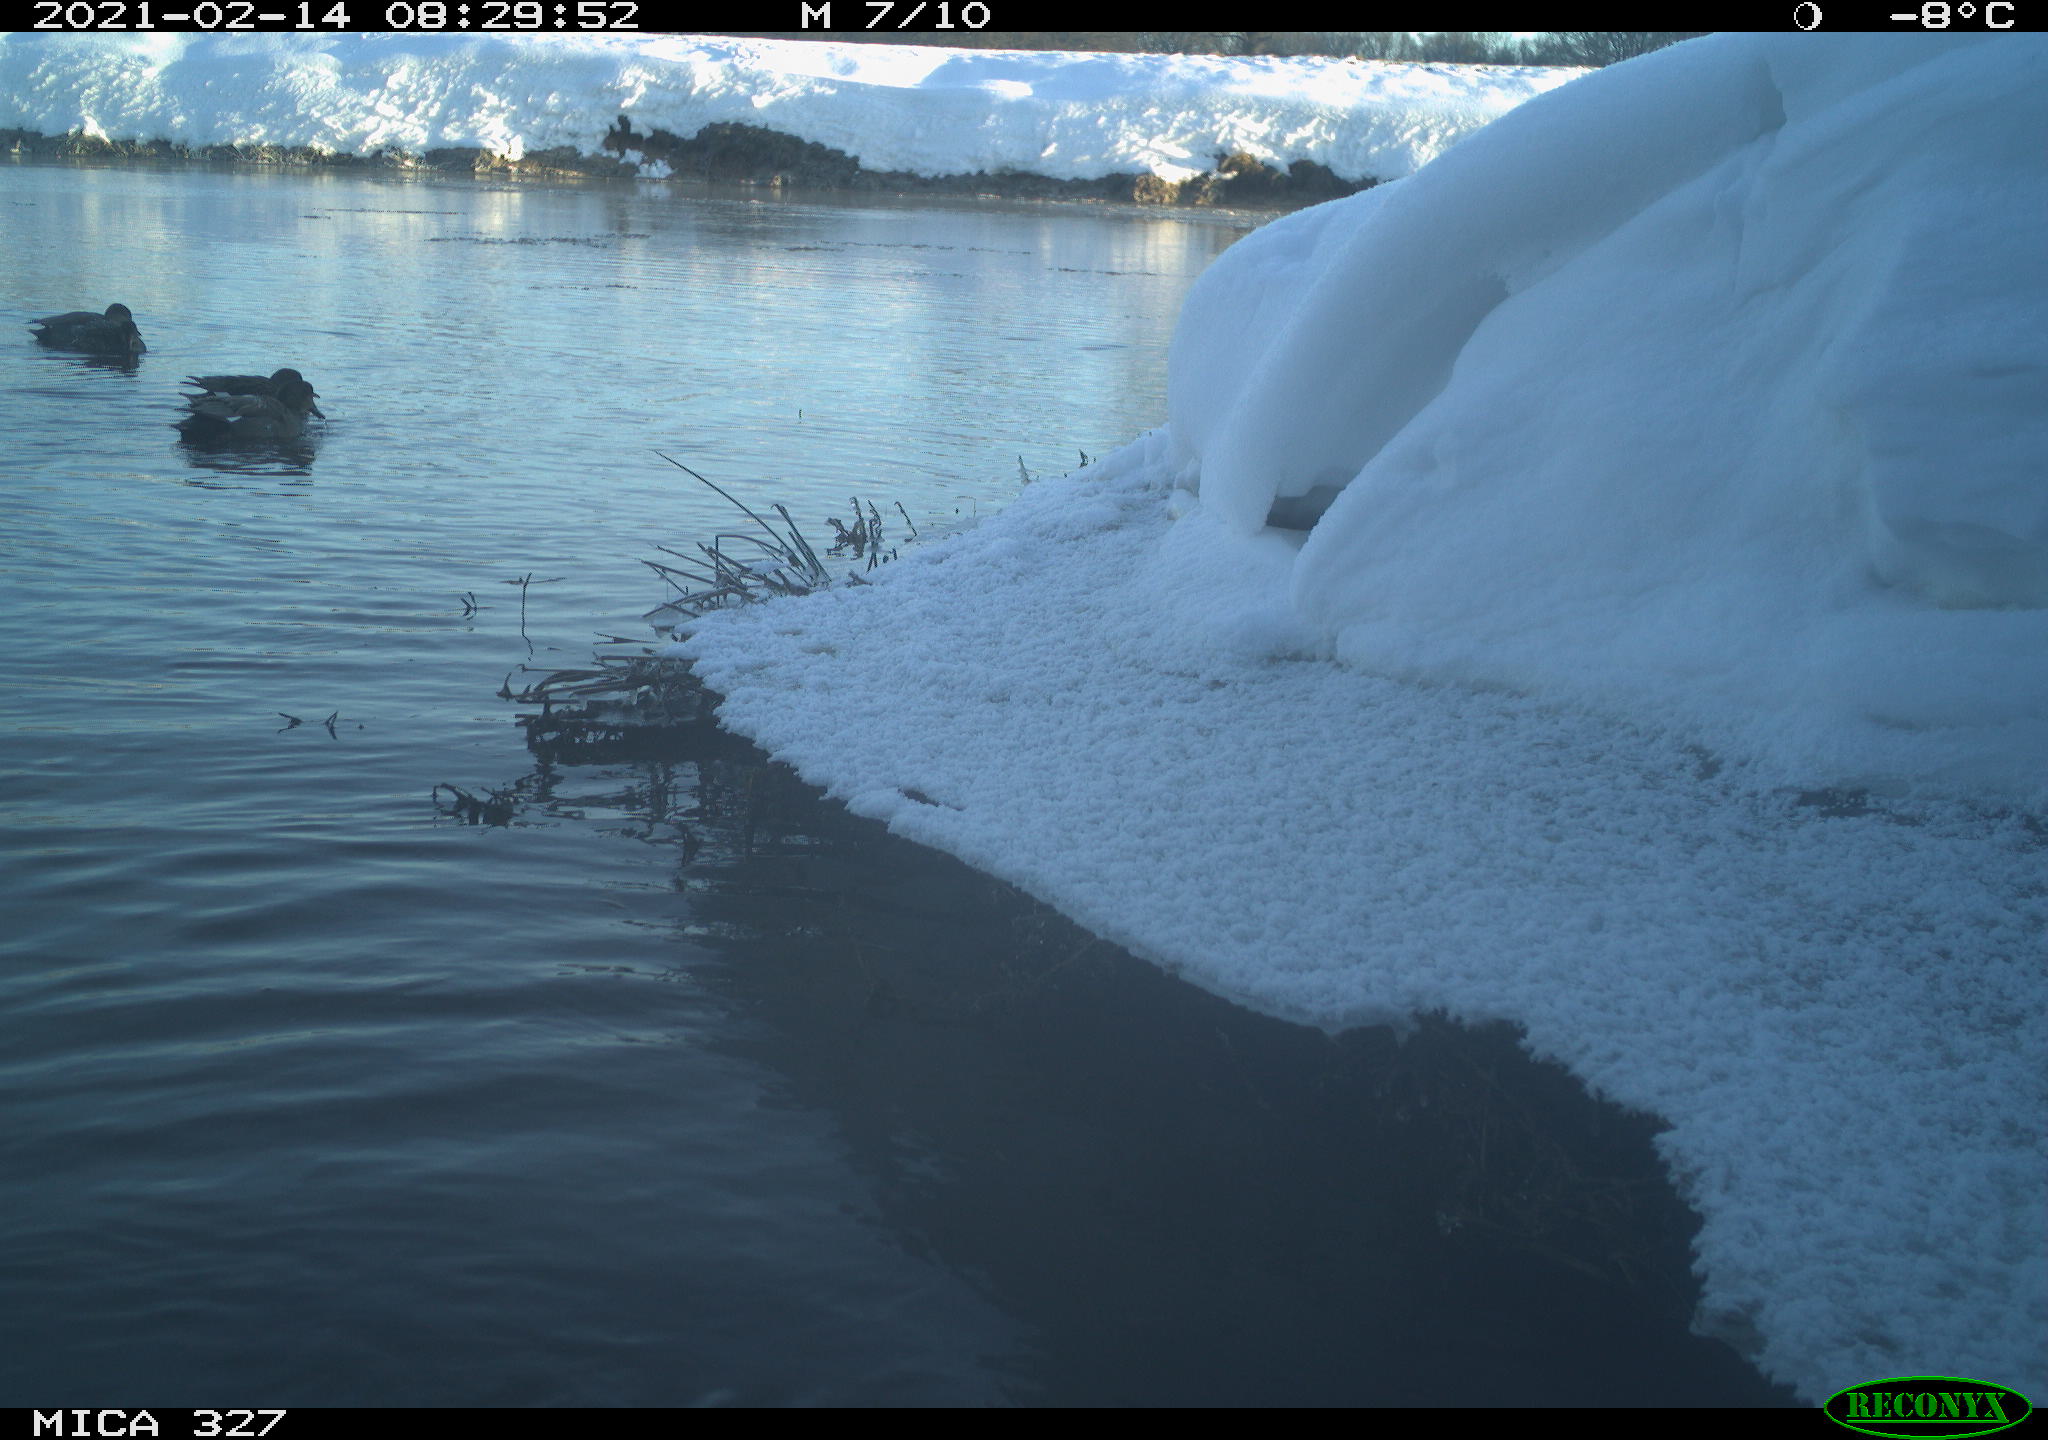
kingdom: Animalia
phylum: Chordata
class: Aves
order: Anseriformes
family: Anatidae
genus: Anas
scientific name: Anas
